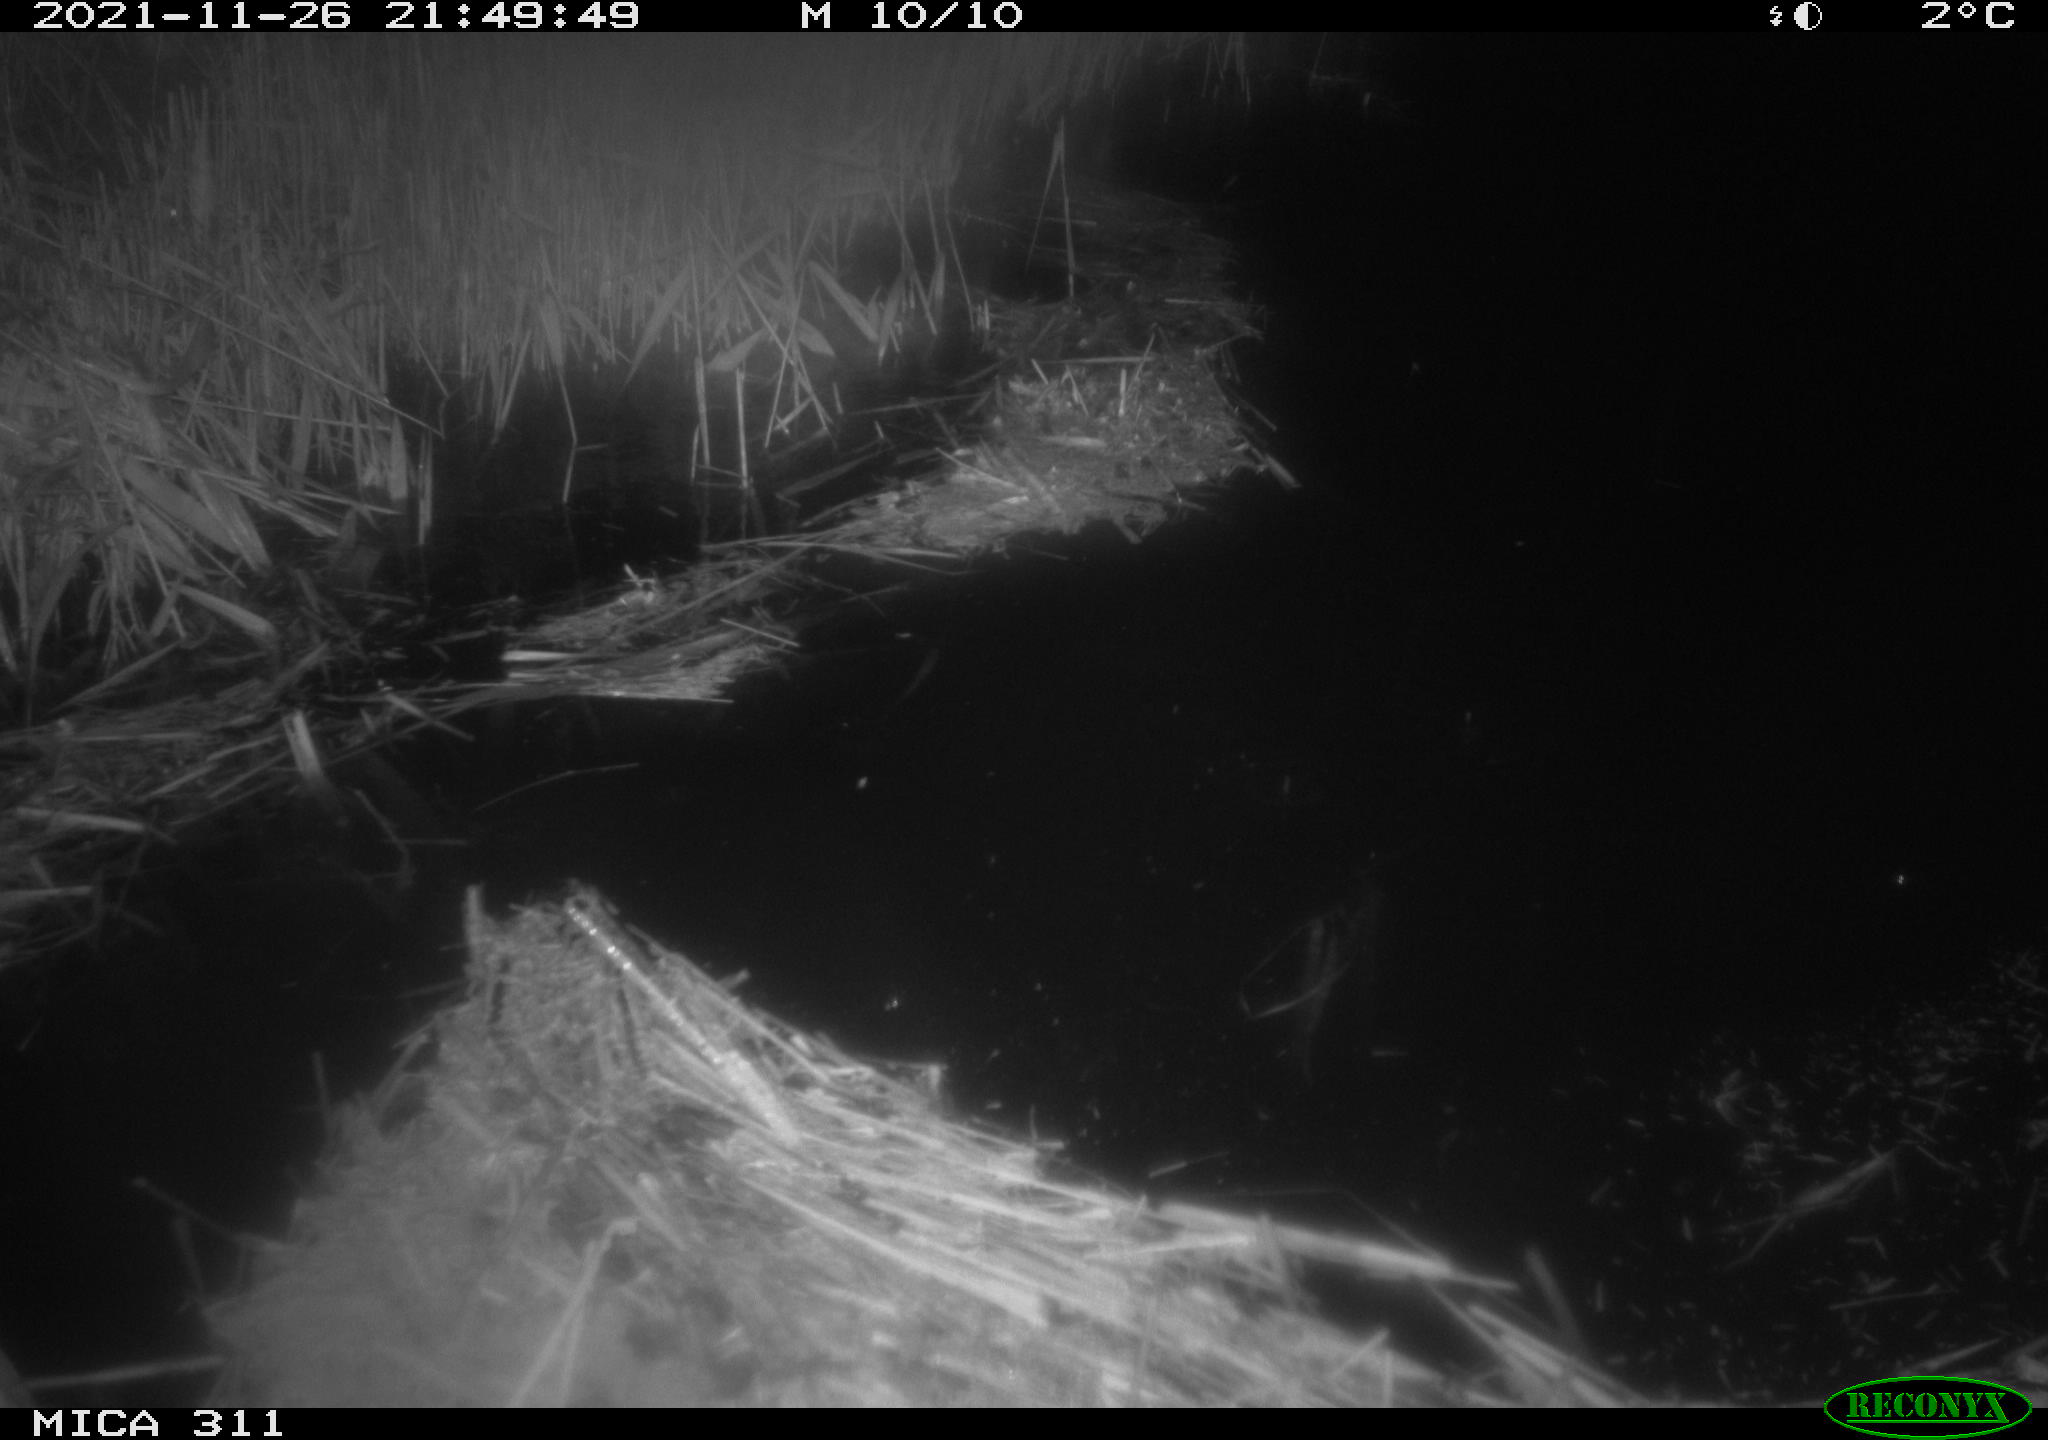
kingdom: Animalia
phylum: Chordata
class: Mammalia
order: Rodentia
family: Muridae
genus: Rattus
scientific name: Rattus norvegicus
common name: Brown rat
